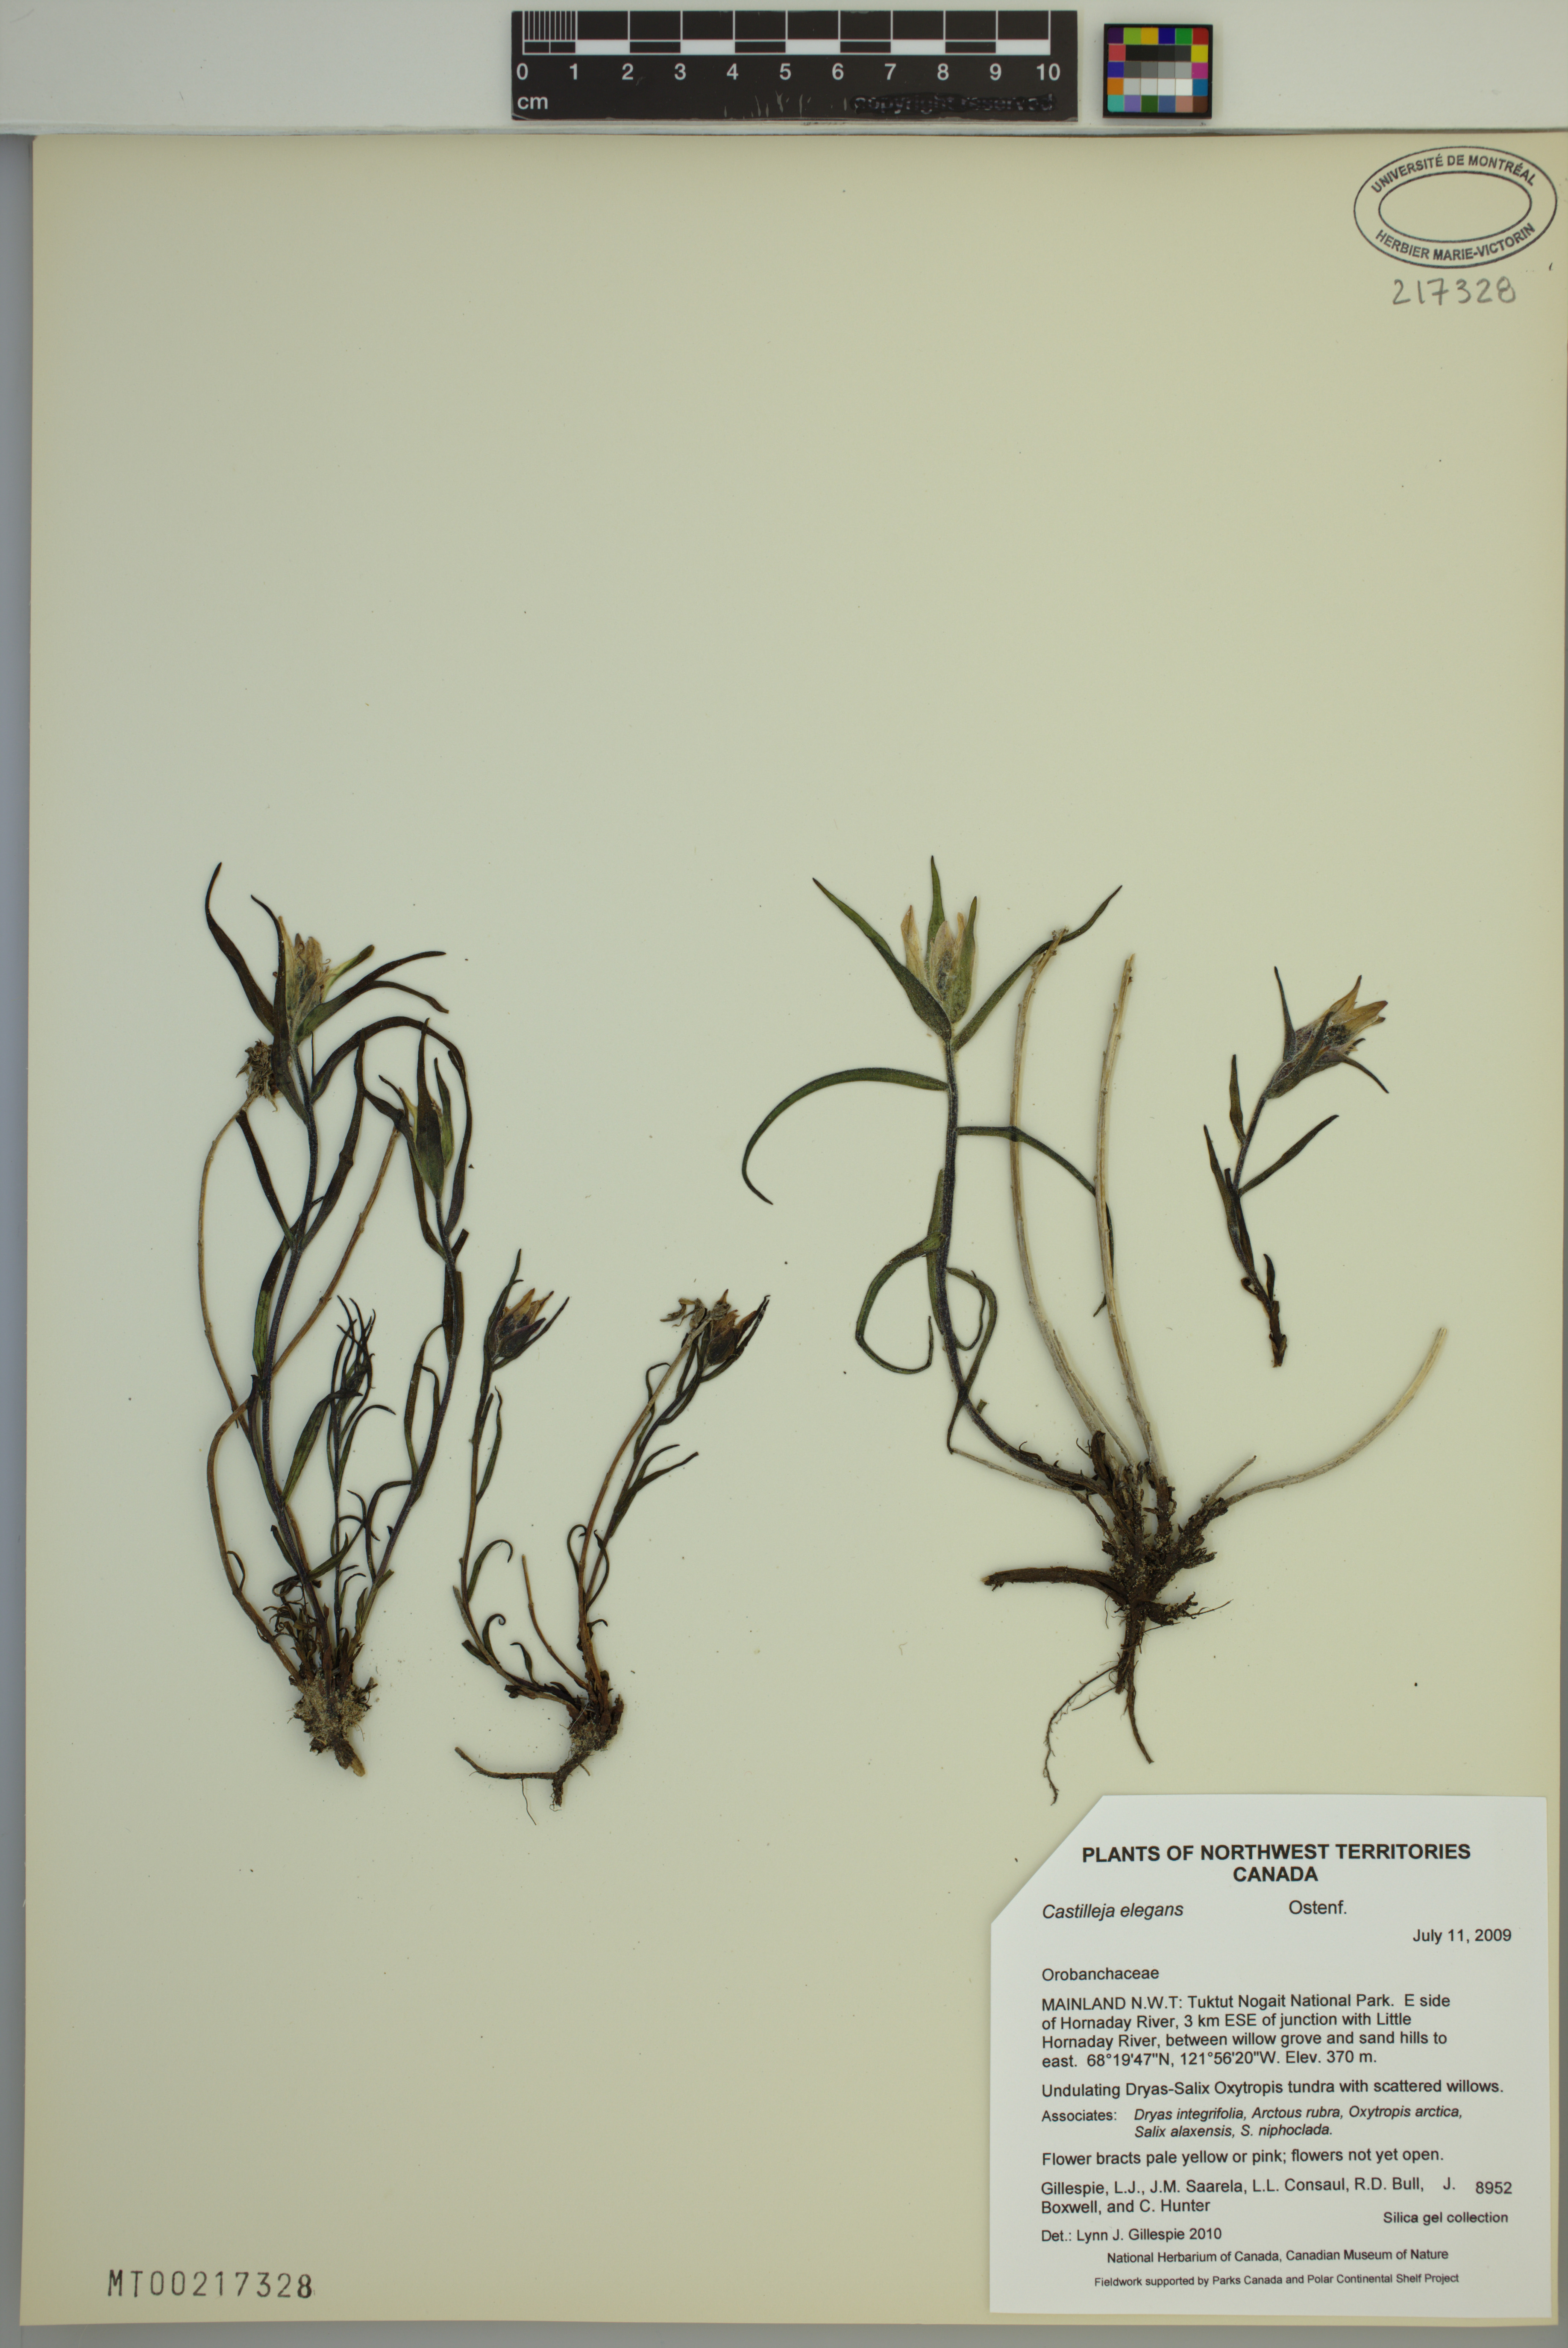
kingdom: Plantae
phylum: Tracheophyta
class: Magnoliopsida
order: Lamiales
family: Orobanchaceae
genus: Castilleja
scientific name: Castilleja elegans
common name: Elegant paintbrush
